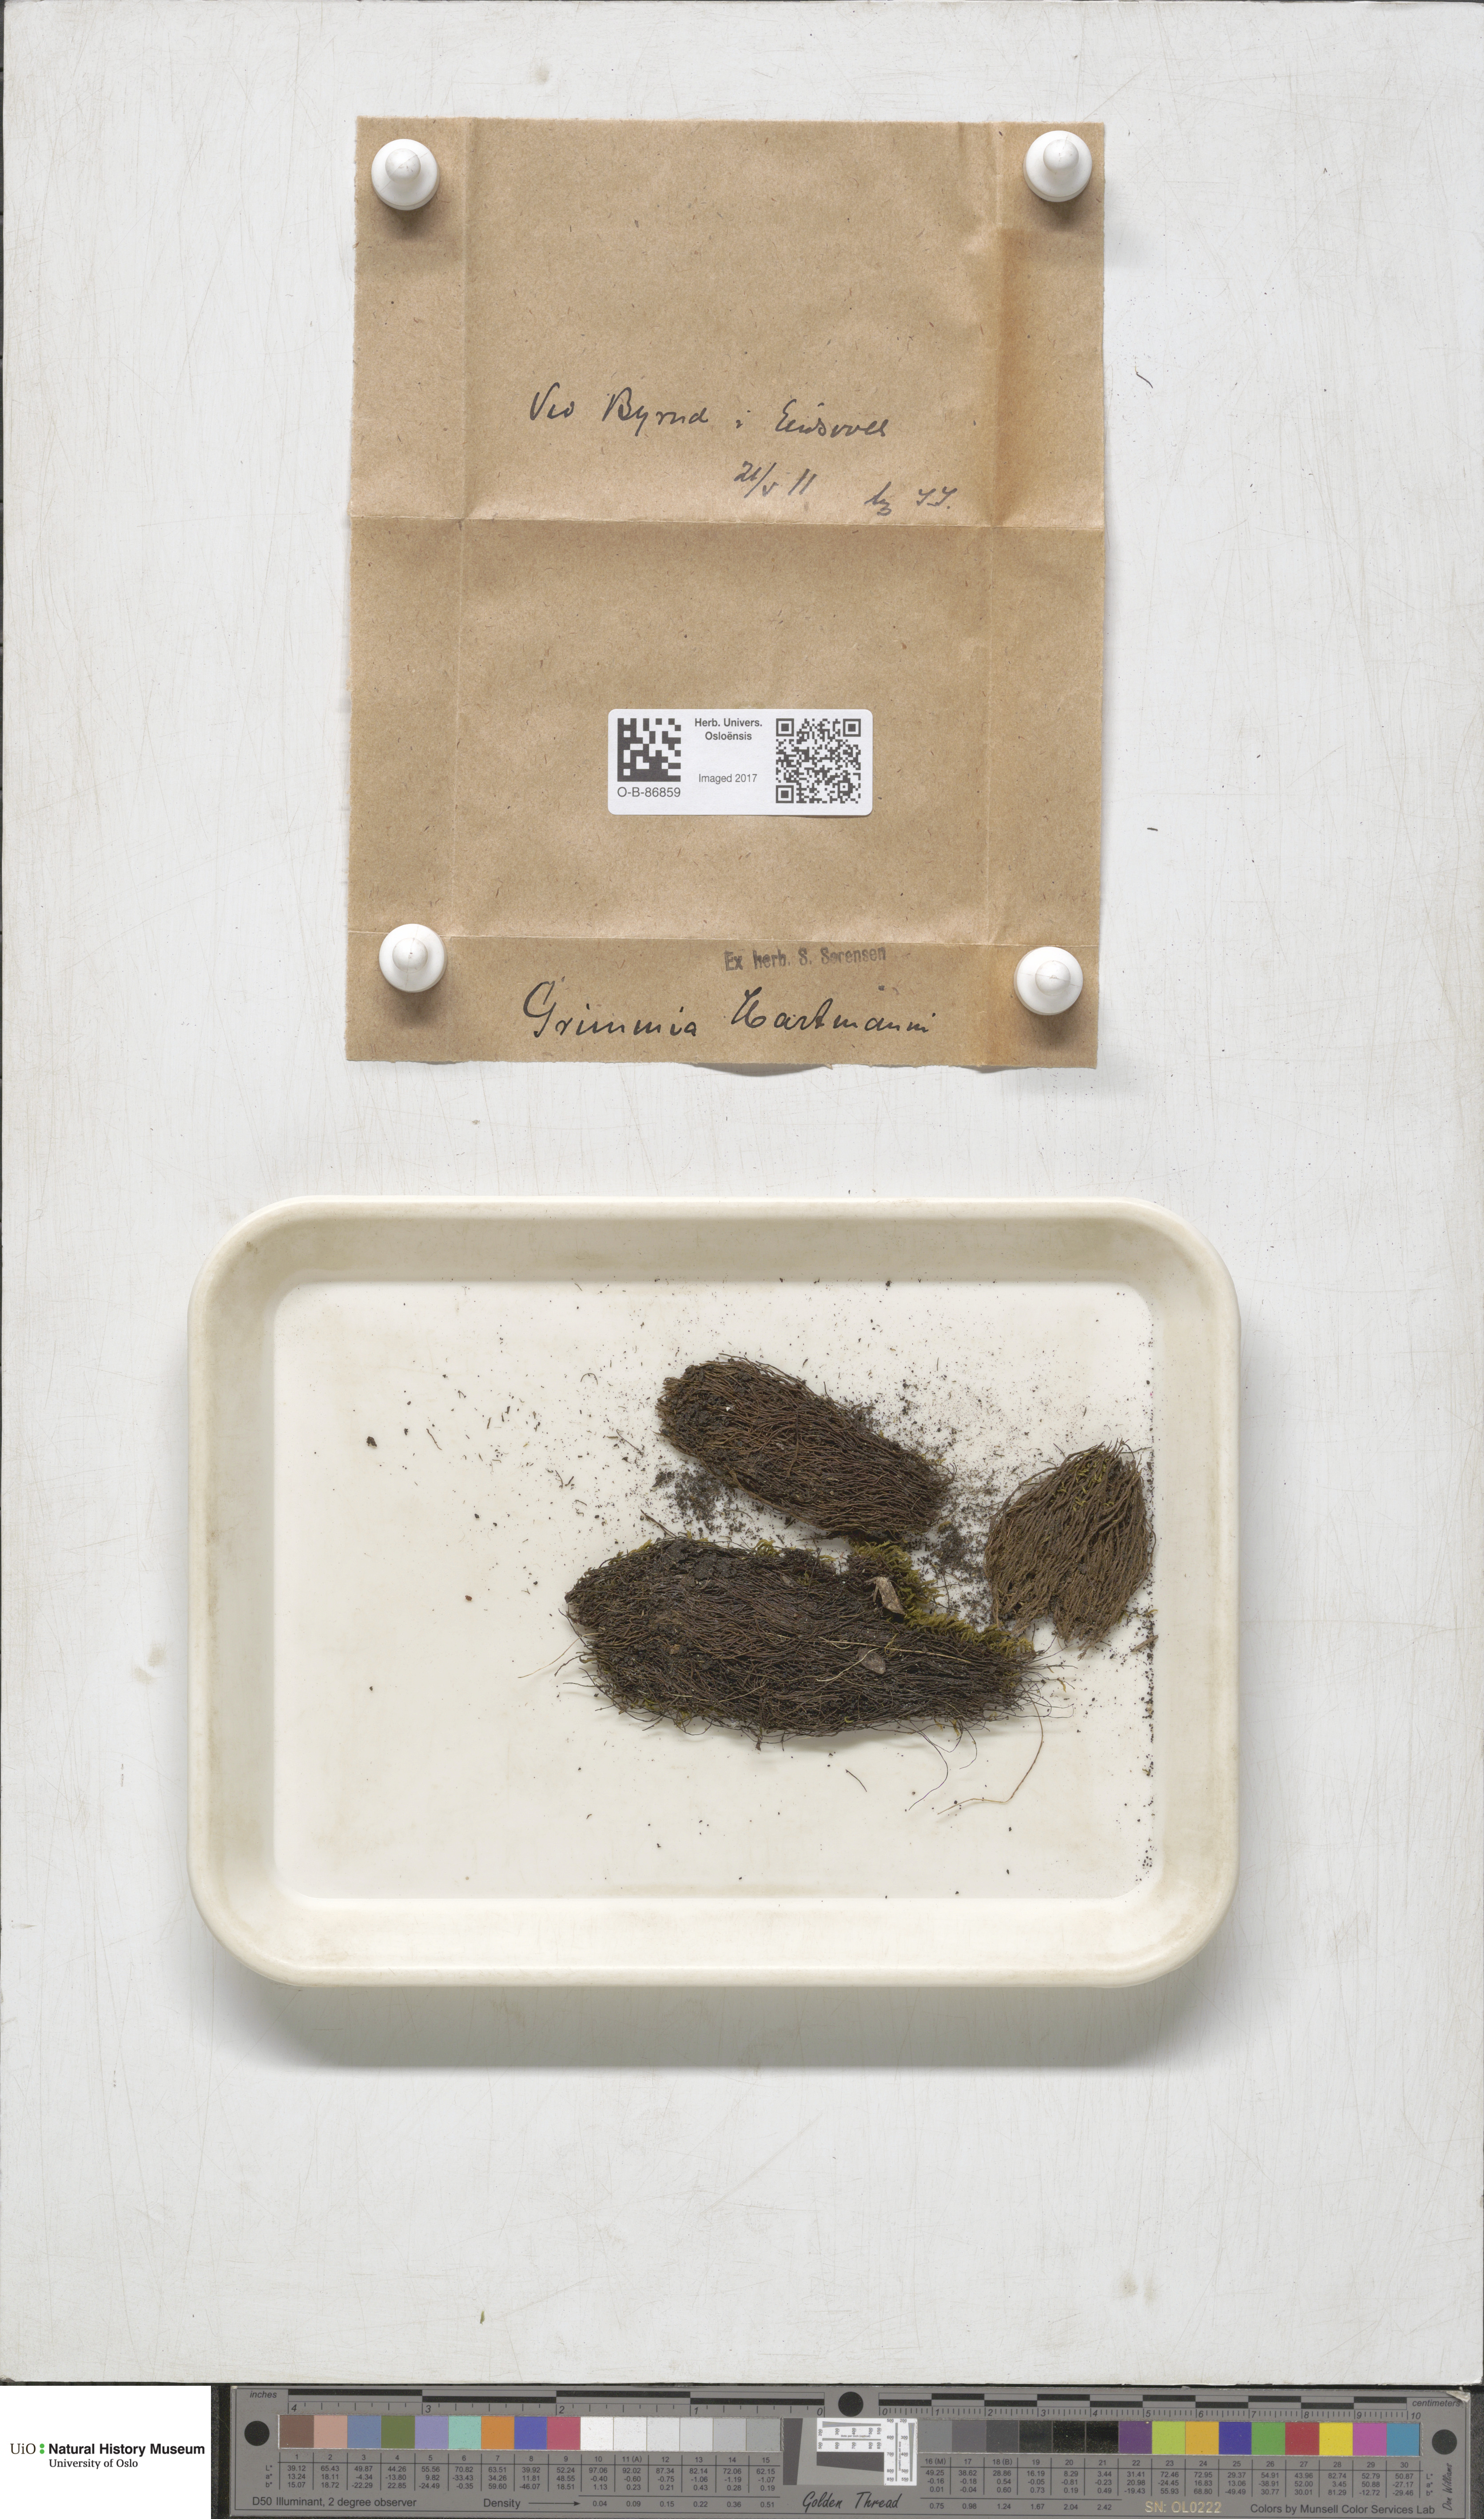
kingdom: Plantae
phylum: Bryophyta
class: Bryopsida
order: Grimmiales
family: Grimmiaceae
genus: Grimmia
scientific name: Grimmia hartmanii
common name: Hartman's grimmia
